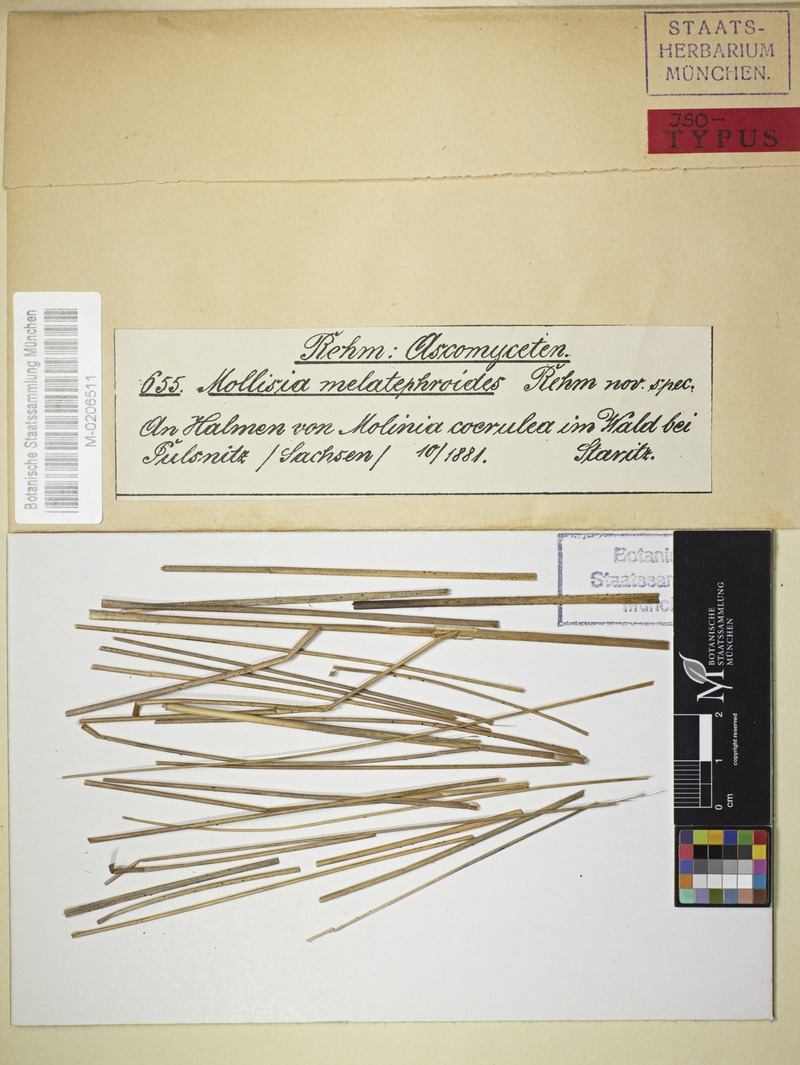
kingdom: Fungi
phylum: Ascomycota
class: Leotiomycetes
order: Helotiales
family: Mollisiaceae
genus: Nimbomollisia
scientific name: Nimbomollisia melatephroides
